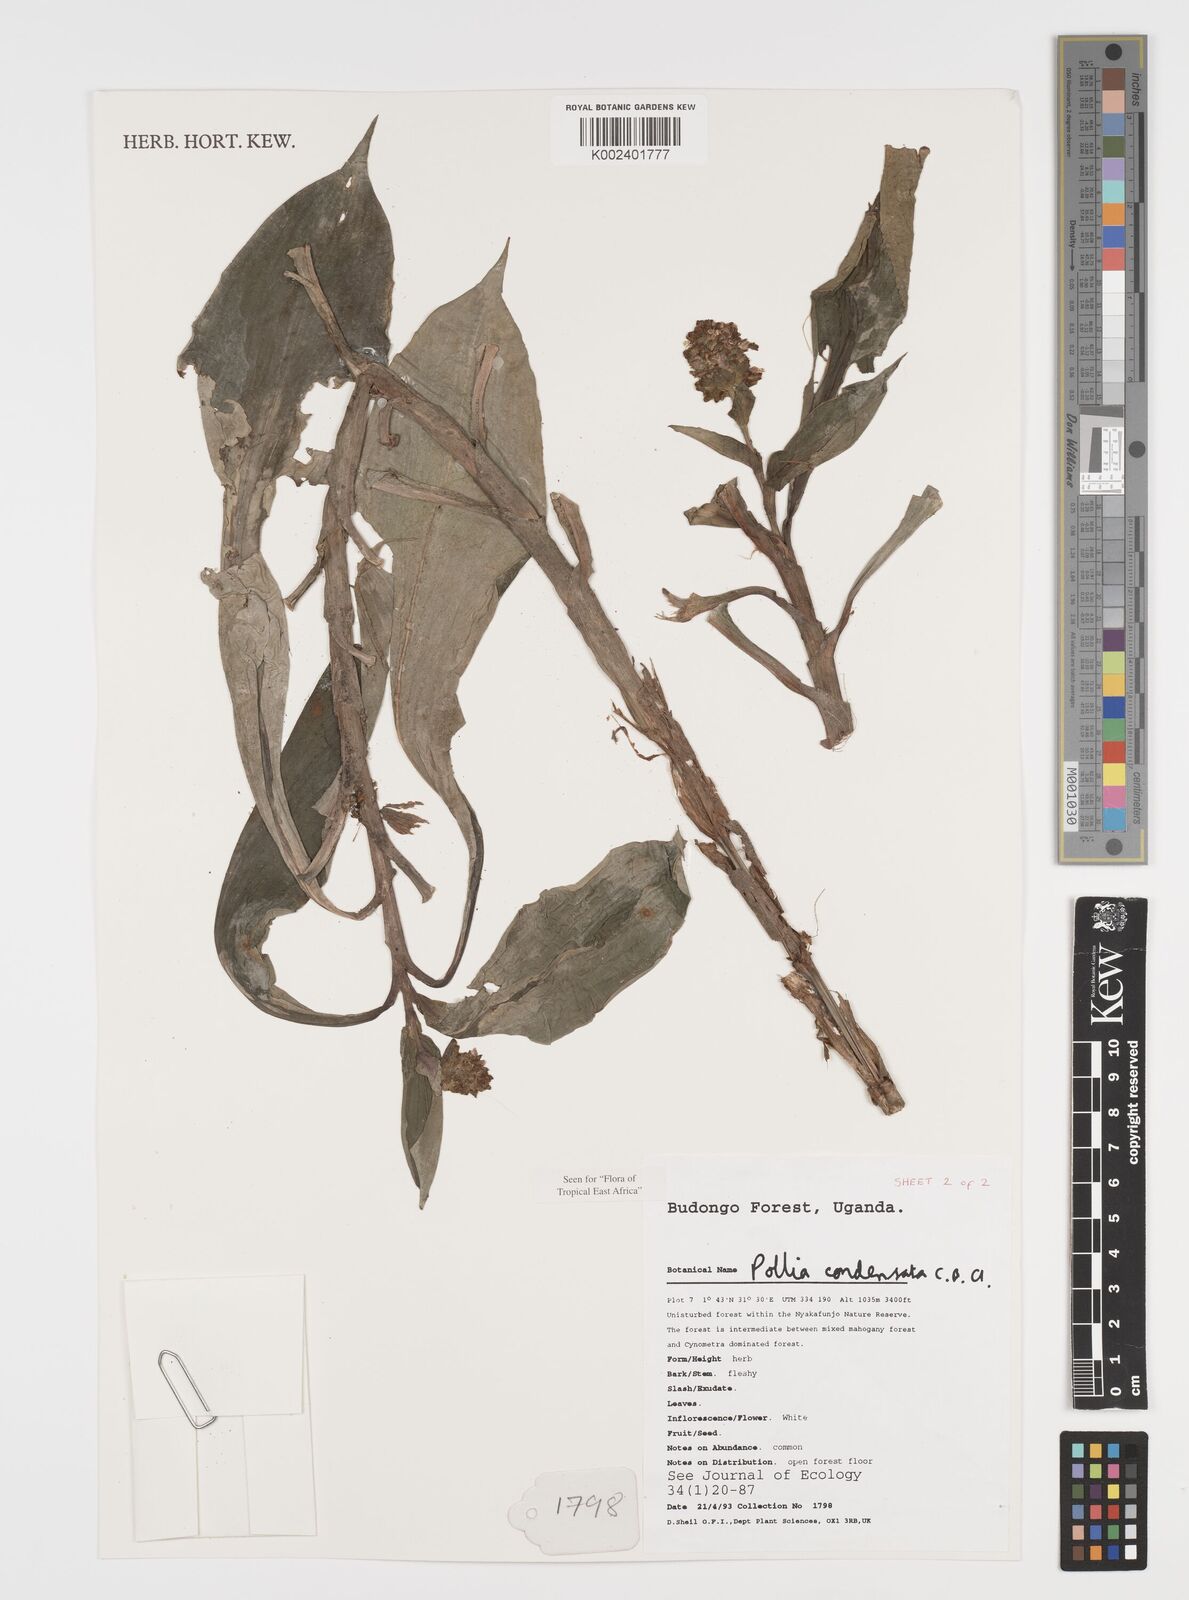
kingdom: Plantae
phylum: Tracheophyta
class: Liliopsida
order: Commelinales
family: Commelinaceae
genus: Pollia
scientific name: Pollia condensata
